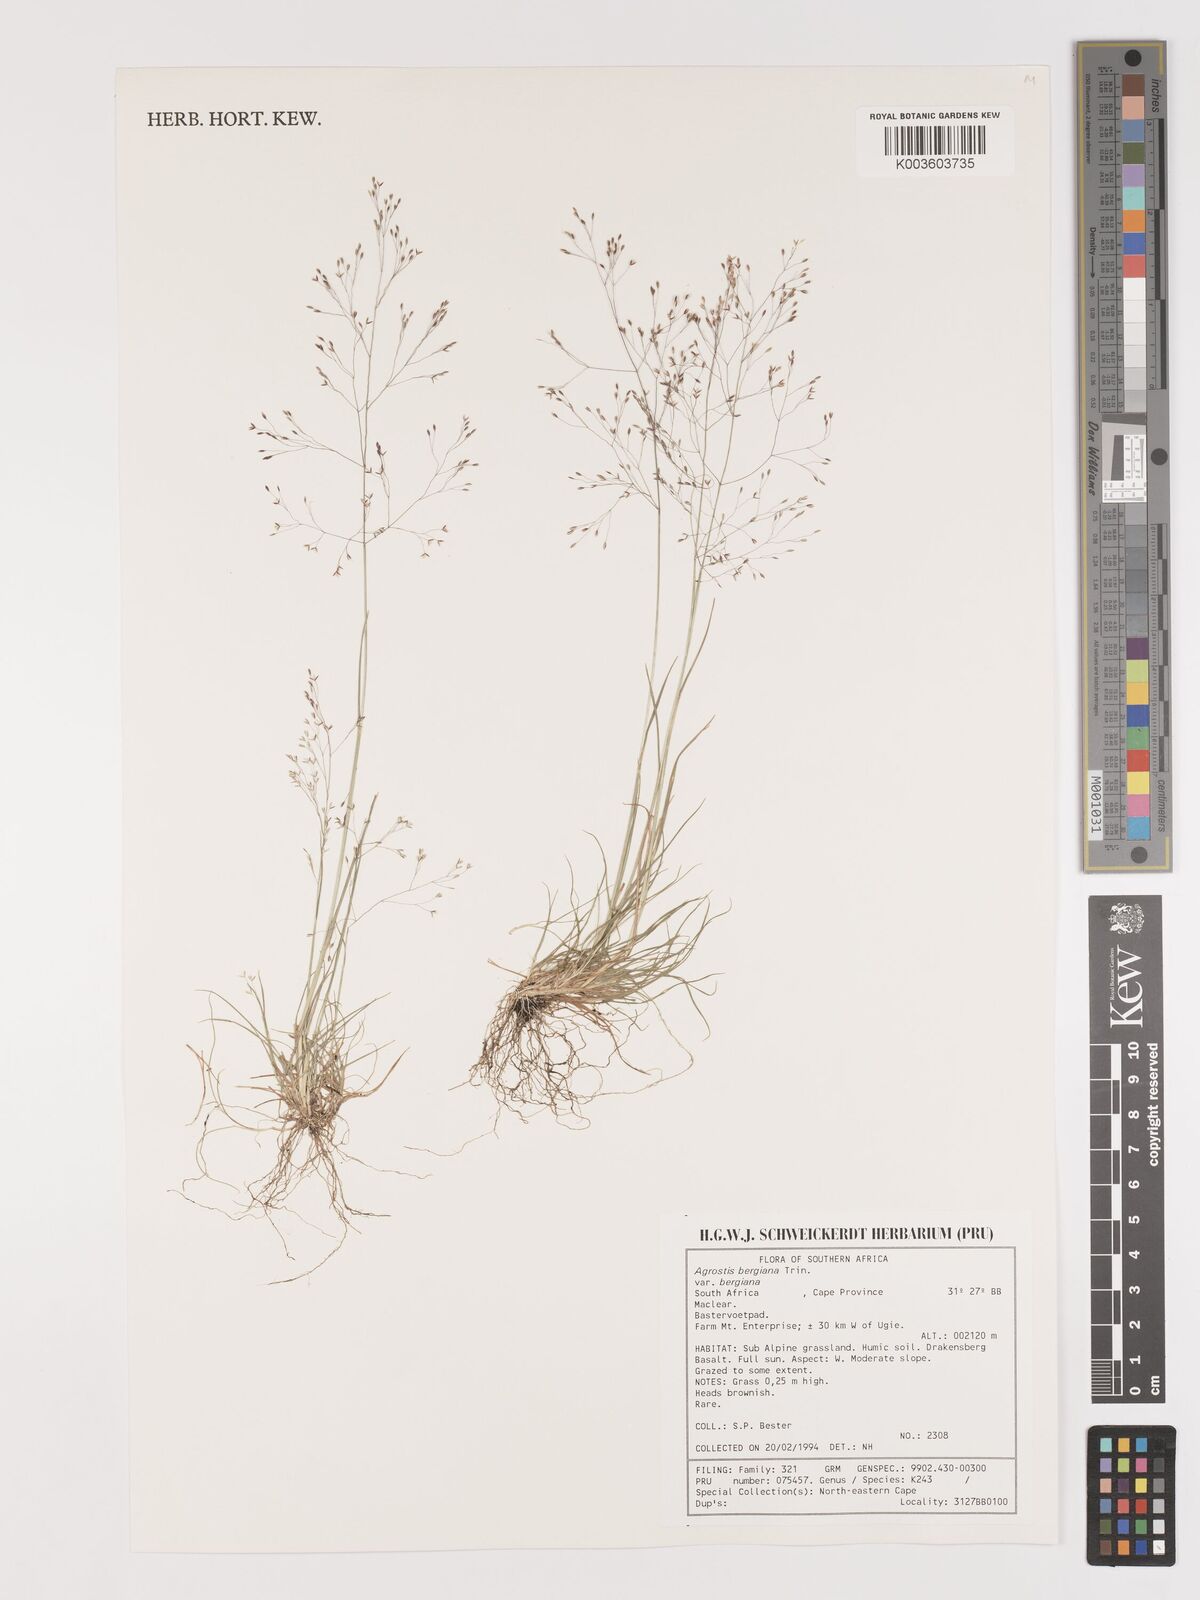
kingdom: Plantae
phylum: Tracheophyta
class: Liliopsida
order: Poales
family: Poaceae
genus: Agrostis
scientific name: Agrostis bergiana
